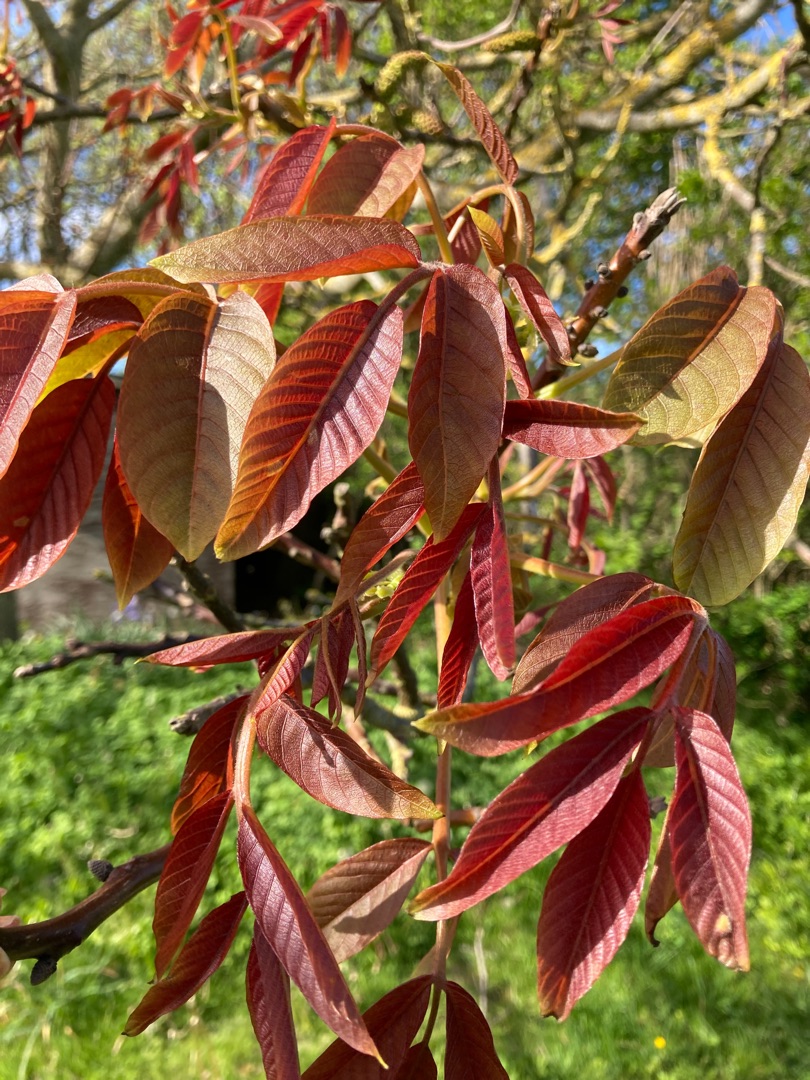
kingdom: Plantae
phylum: Tracheophyta
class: Magnoliopsida
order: Fagales
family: Juglandaceae
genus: Juglans
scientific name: Juglans regia
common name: Almindelig valnød
